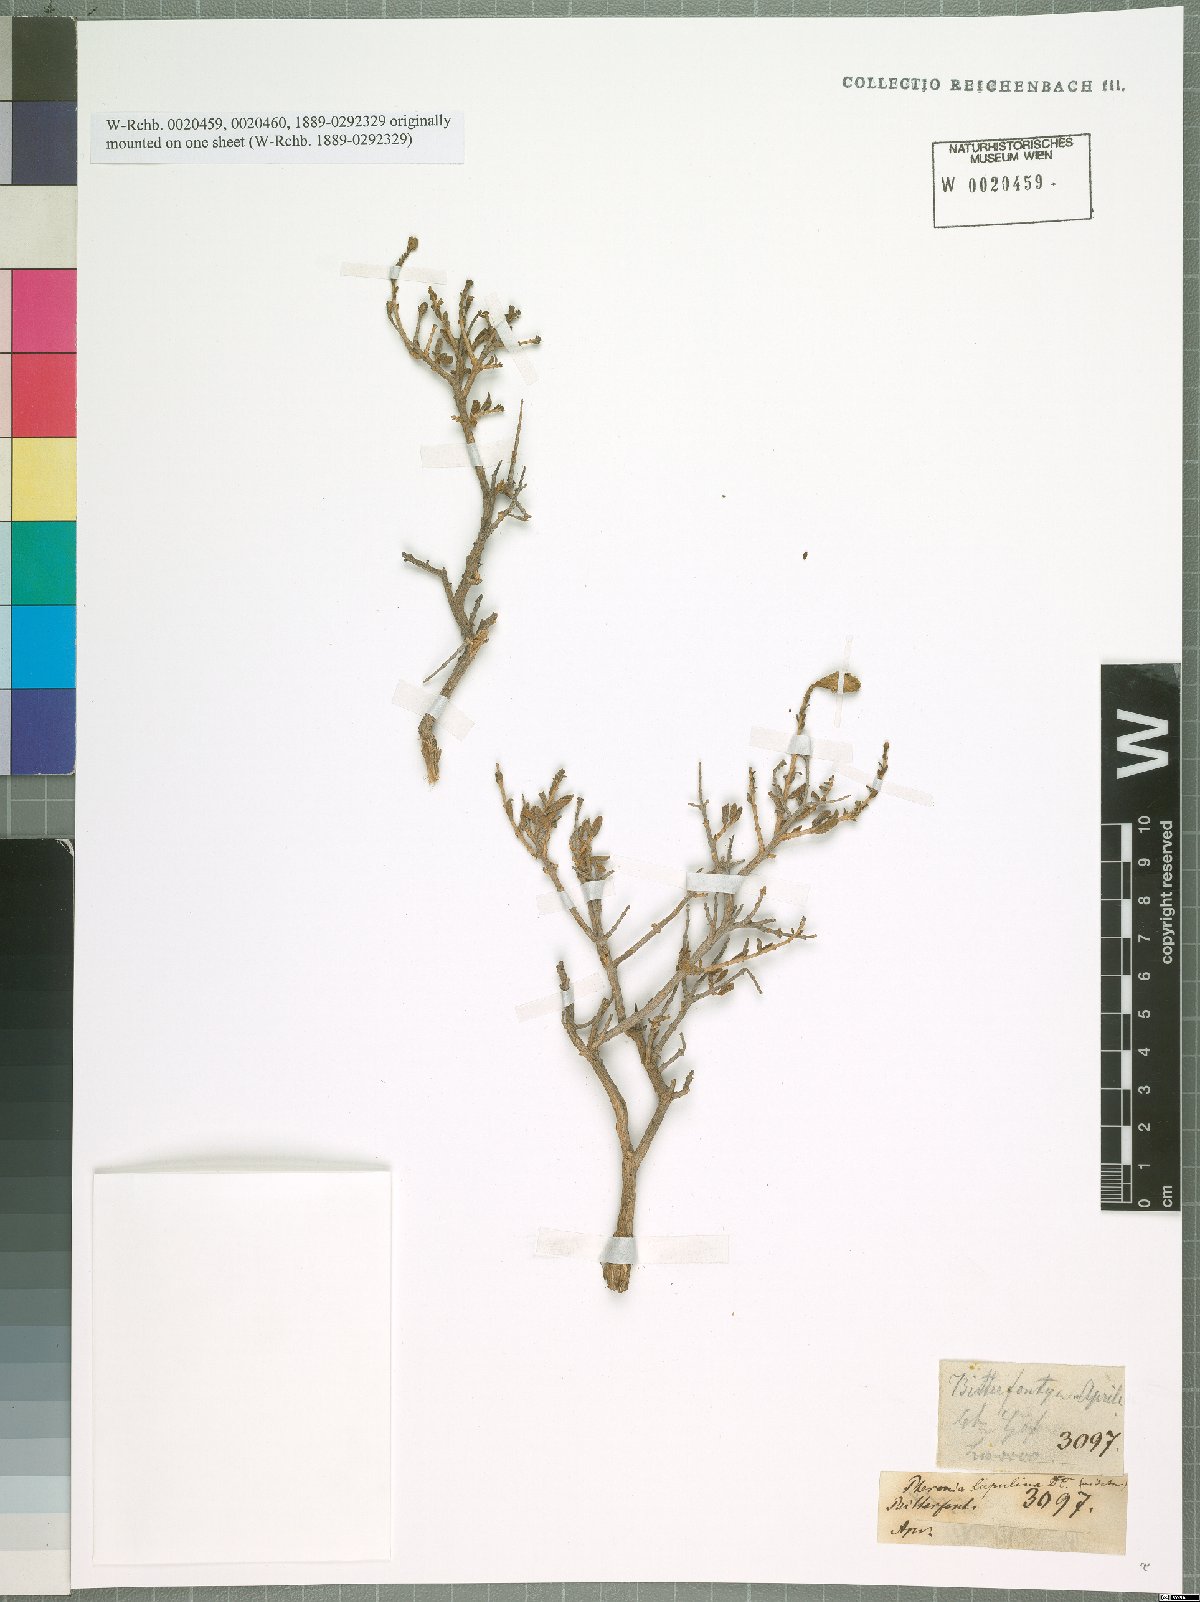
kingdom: Plantae
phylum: Tracheophyta
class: Magnoliopsida
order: Asterales
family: Asteraceae
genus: Pteronia
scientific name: Pteronia inflexa
